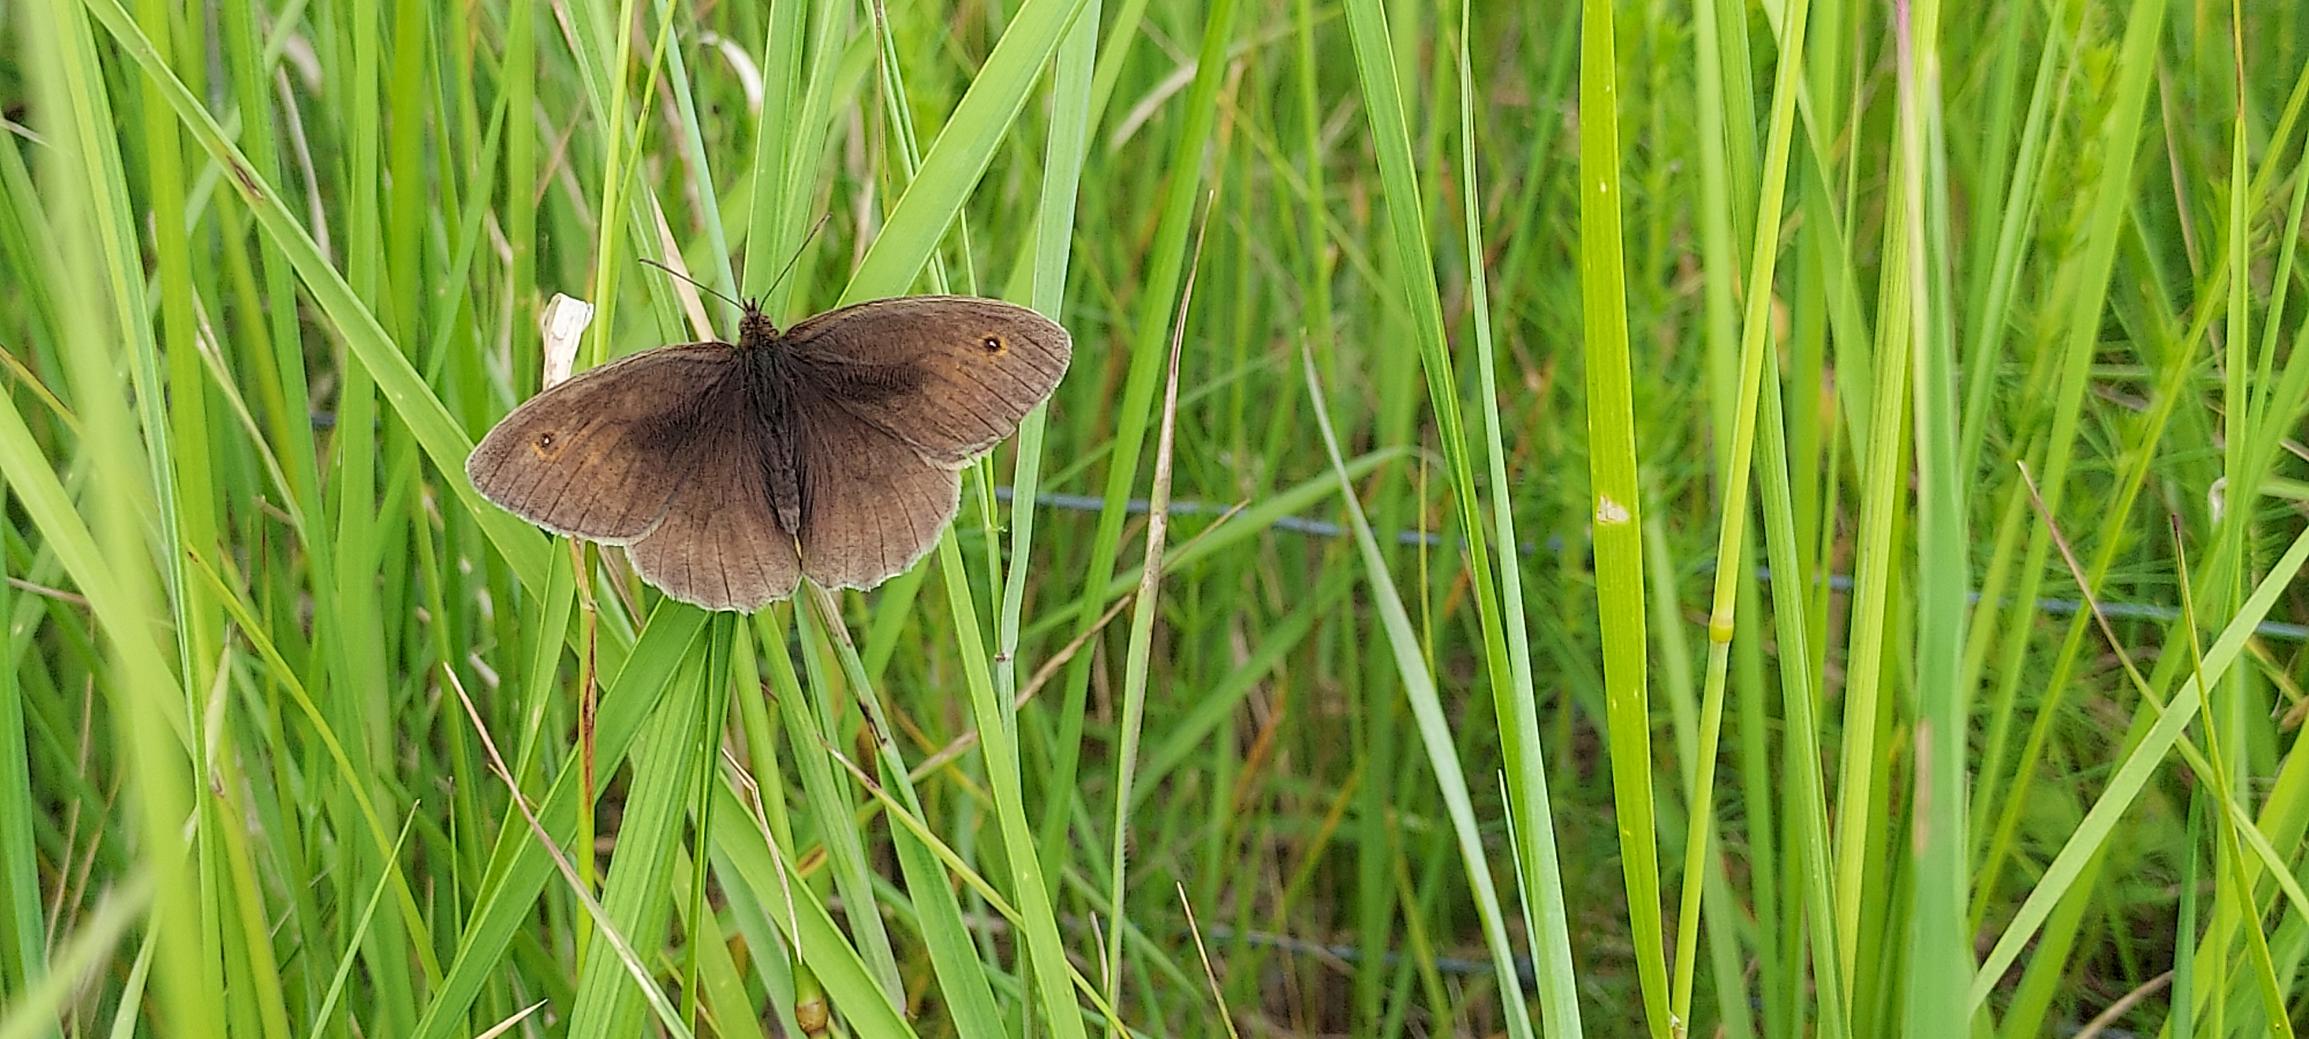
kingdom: Animalia
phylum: Arthropoda
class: Insecta
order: Lepidoptera
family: Nymphalidae
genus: Maniola
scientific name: Maniola jurtina
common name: Græsrandøje
